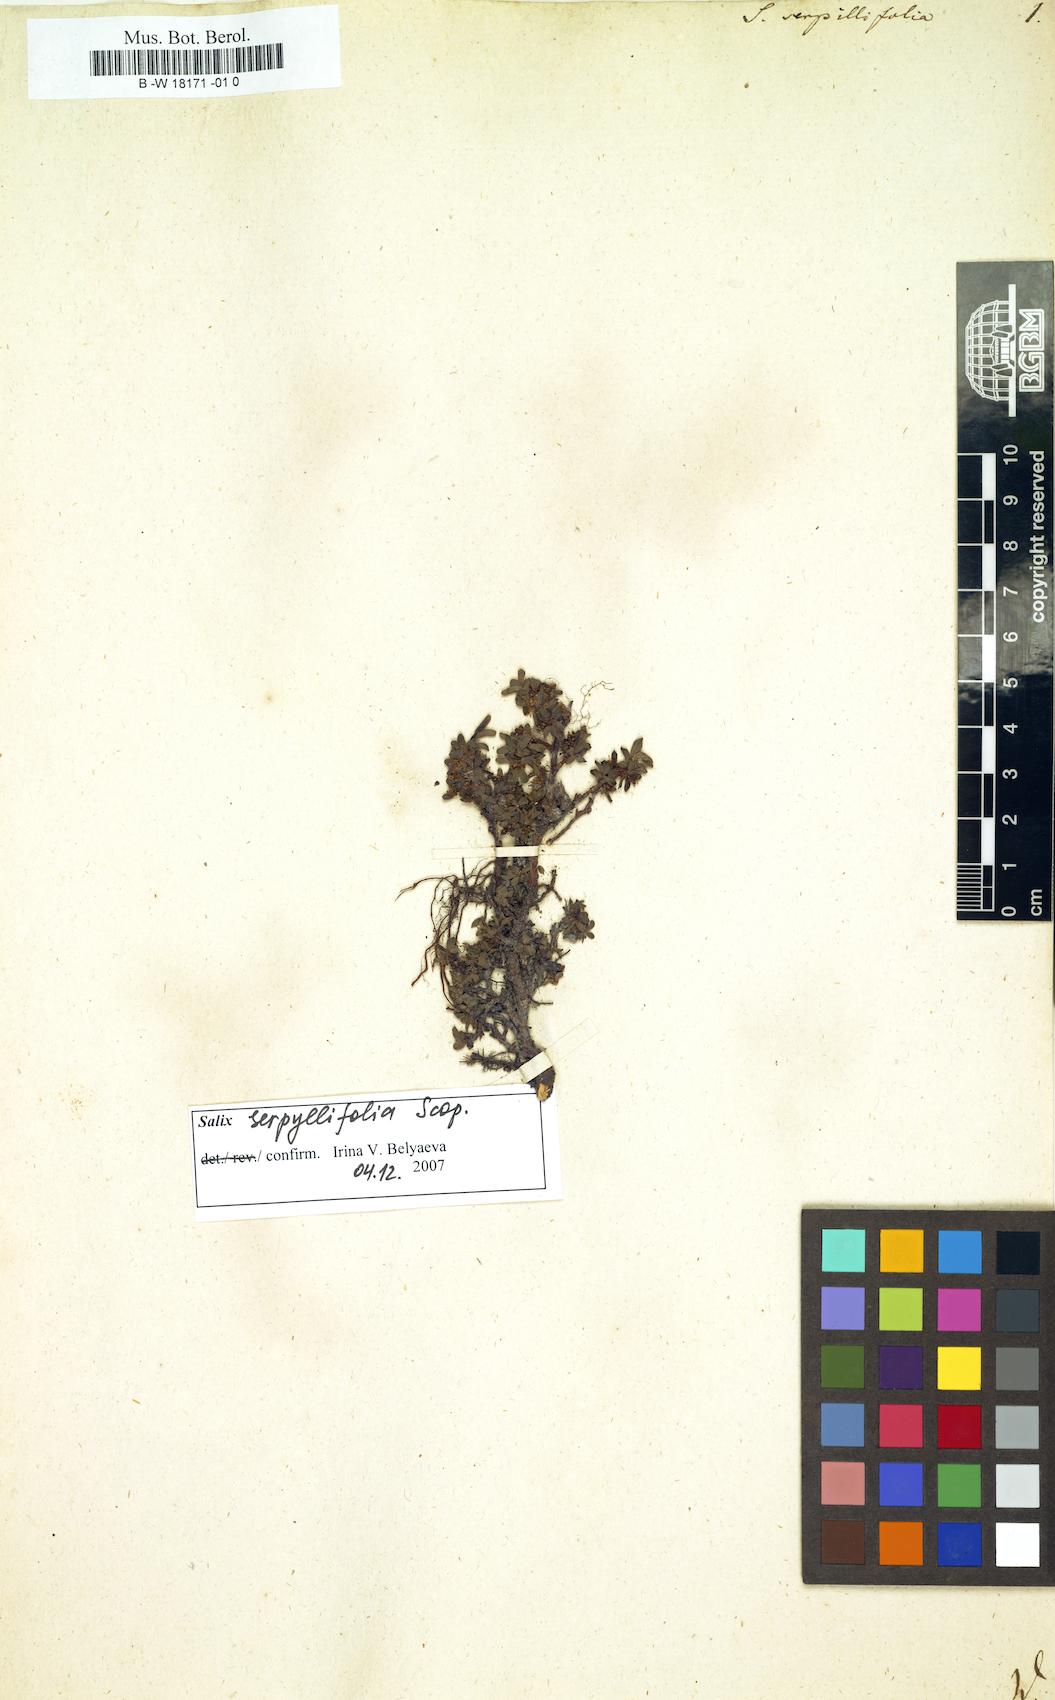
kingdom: Plantae
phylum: Tracheophyta
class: Magnoliopsida
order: Malpighiales
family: Salicaceae
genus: Salix
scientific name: Salix serpillifolia
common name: Thyme-leaf willow
